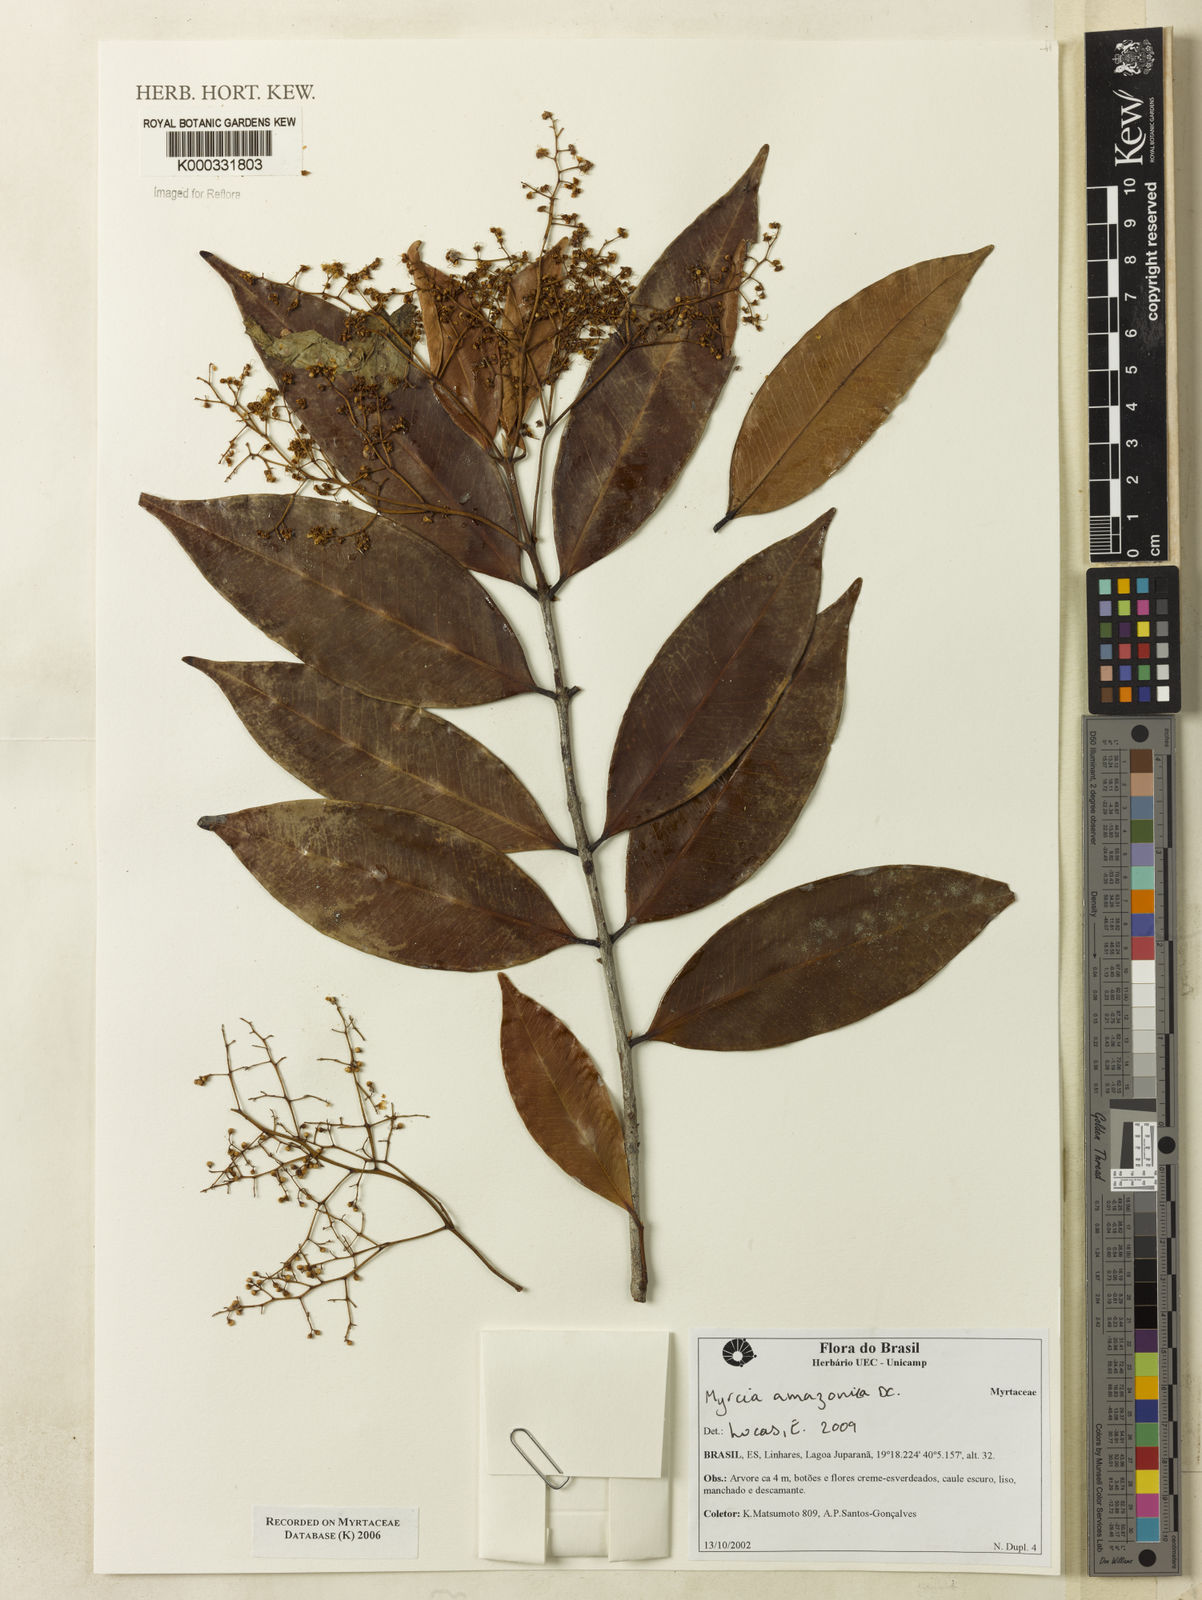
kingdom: Plantae
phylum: Tracheophyta
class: Magnoliopsida
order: Myrtales
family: Myrtaceae
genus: Myrcia
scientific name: Myrcia
